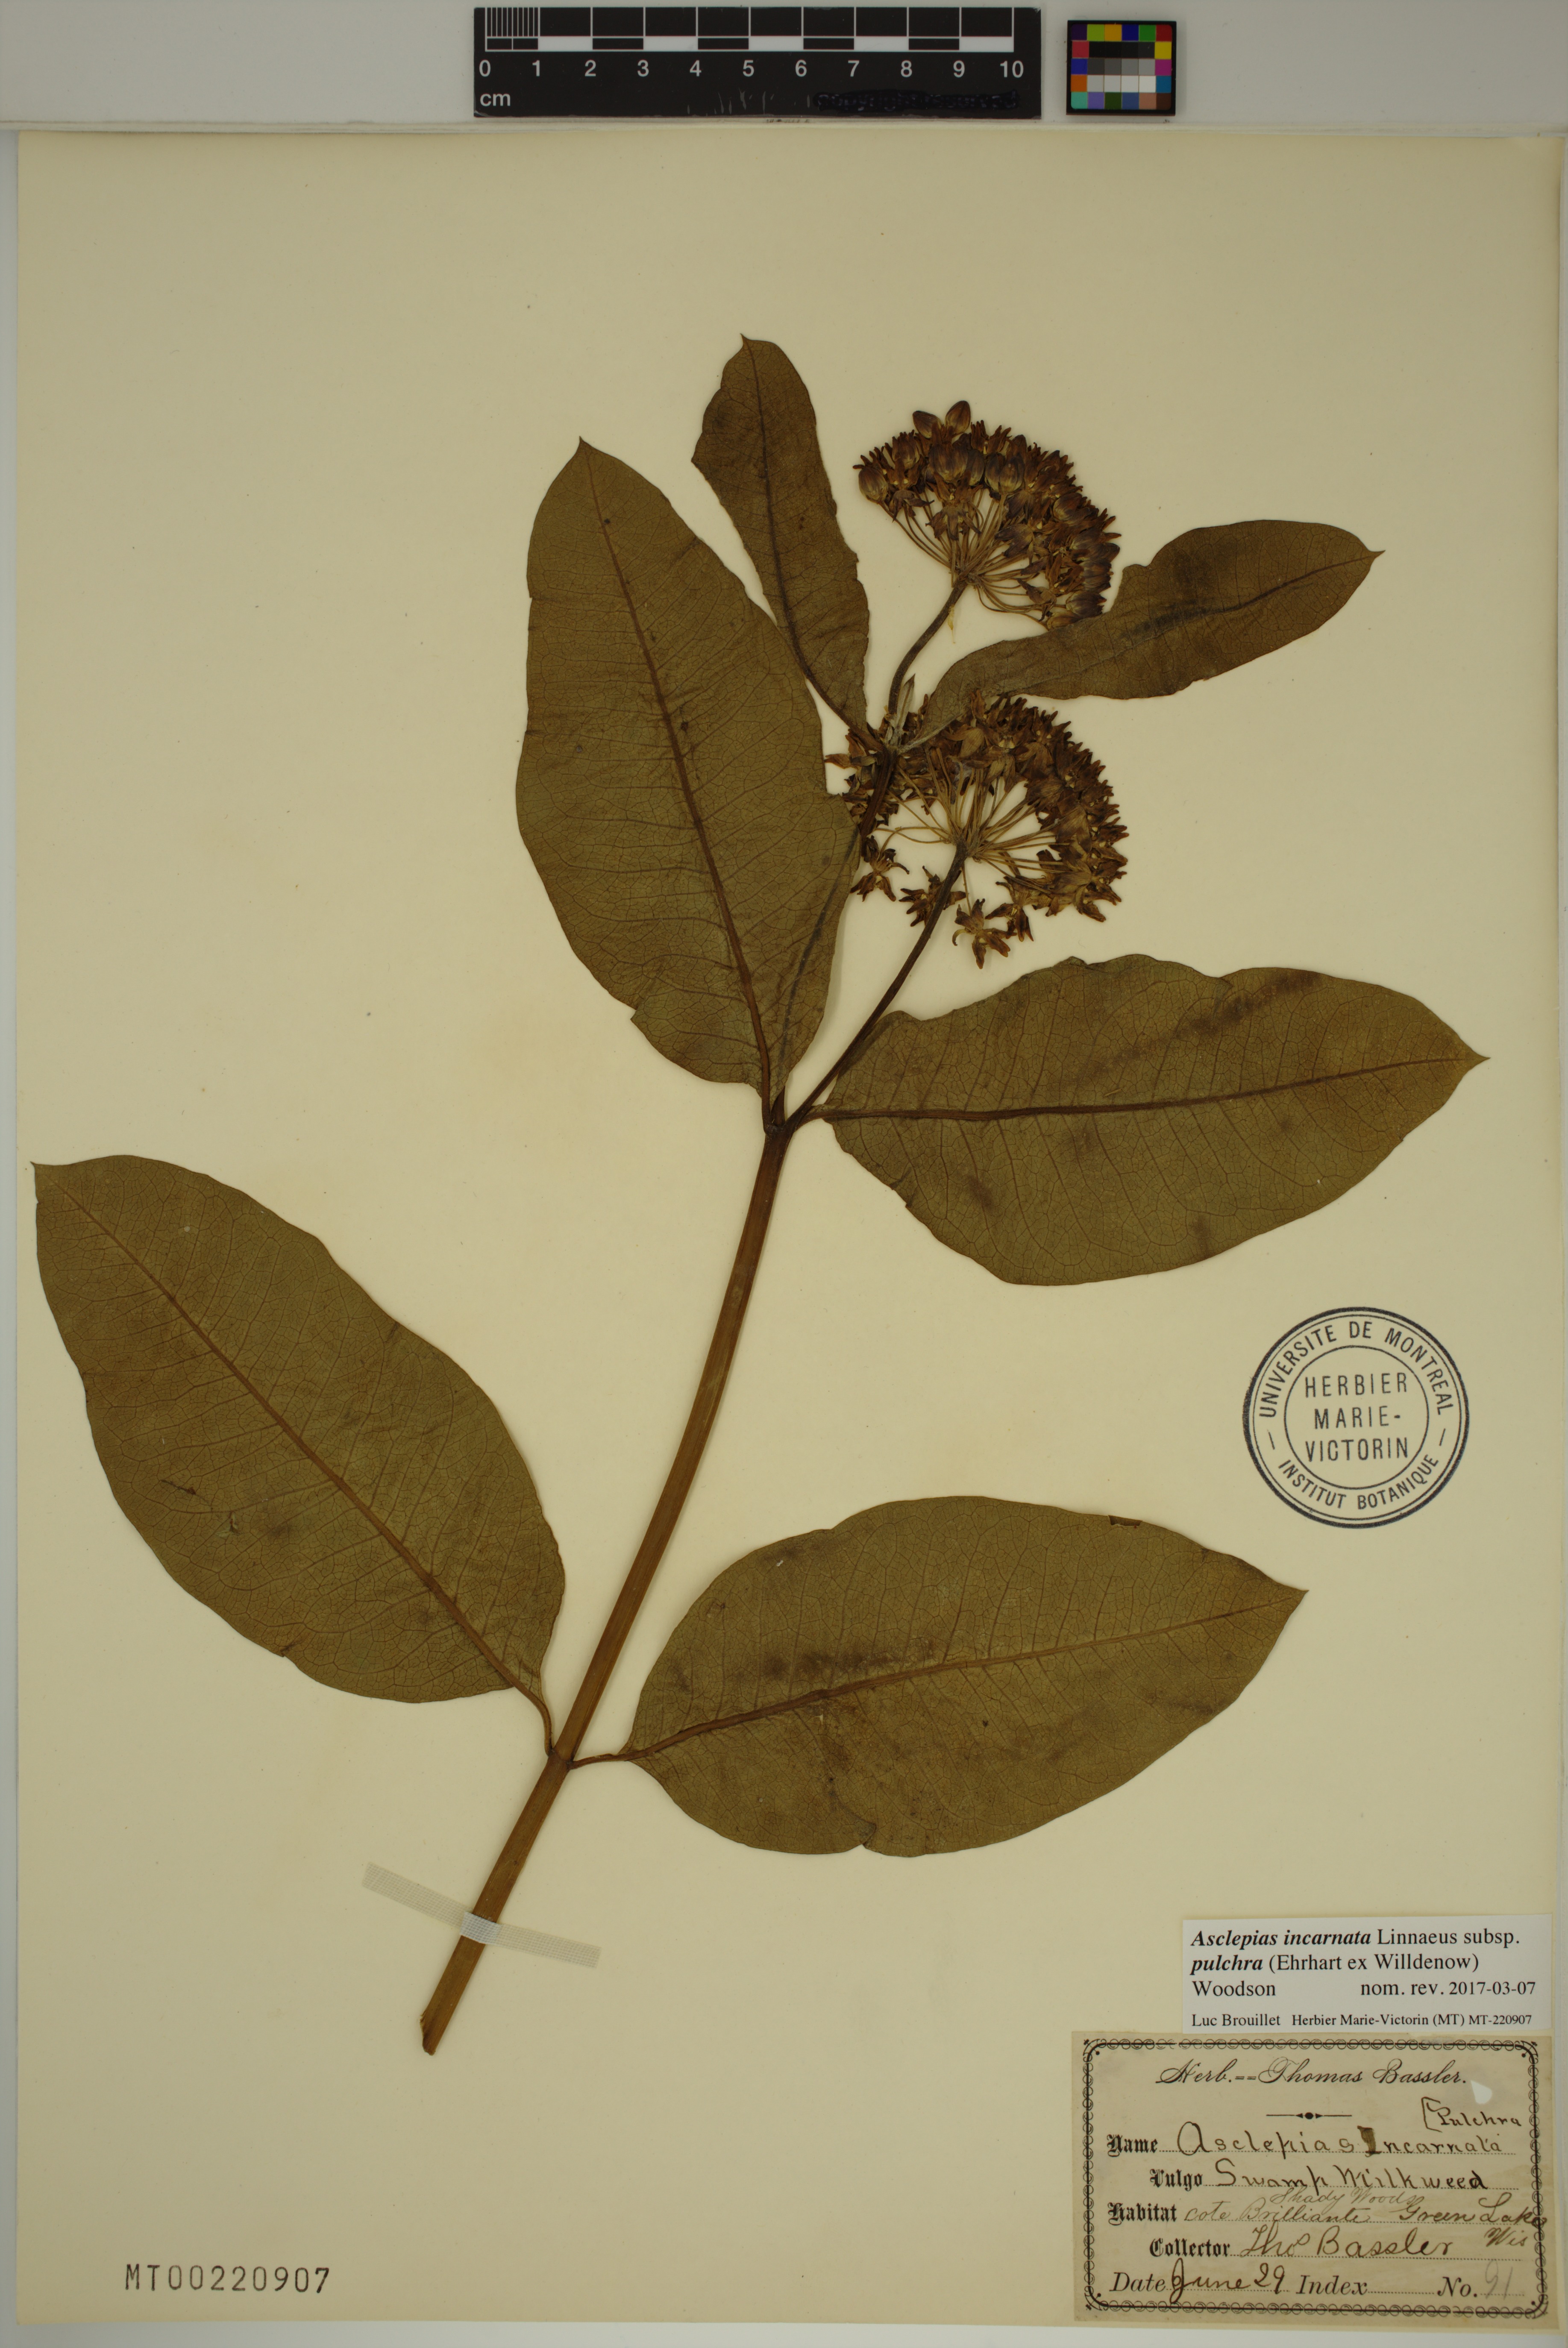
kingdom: Plantae
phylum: Tracheophyta
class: Magnoliopsida
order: Gentianales
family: Apocynaceae
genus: Asclepias
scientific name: Asclepias incarnata
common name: Swamp milkweed
